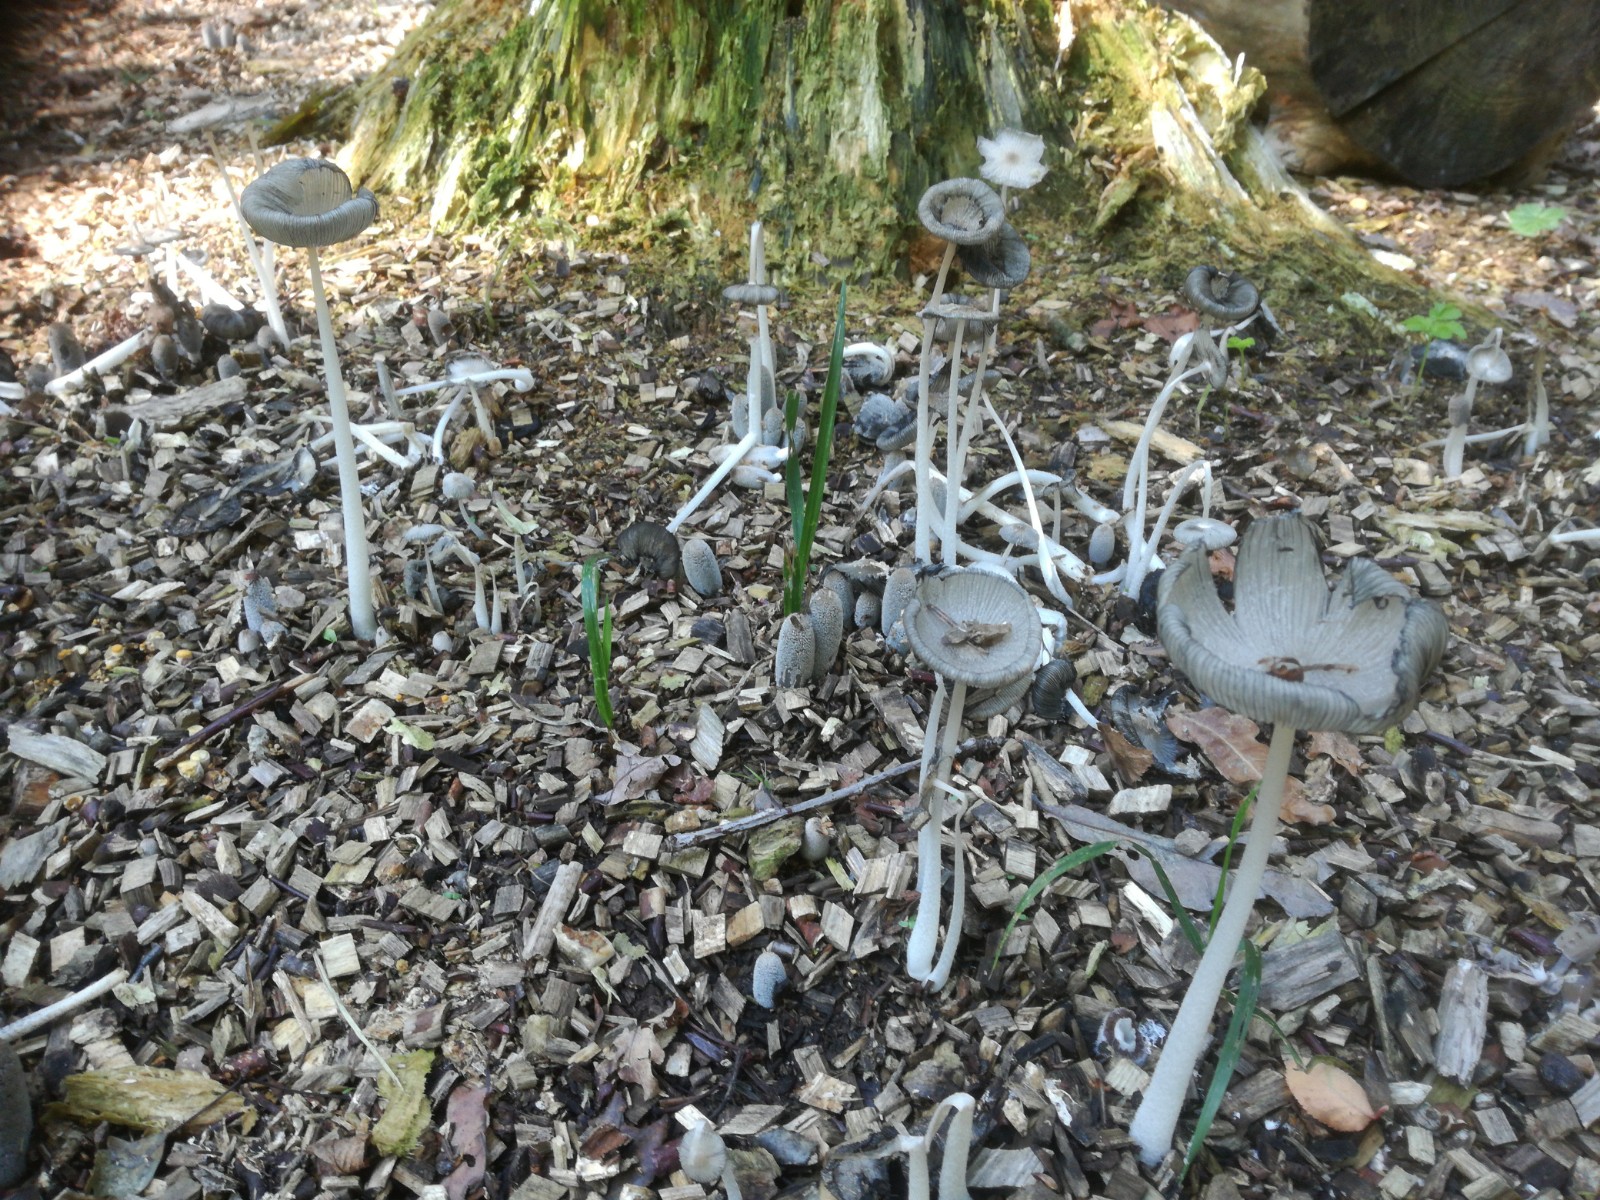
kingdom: Fungi
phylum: Basidiomycota
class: Agaricomycetes
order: Agaricales
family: Psathyrellaceae
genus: Coprinopsis
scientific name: Coprinopsis lagopus
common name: dunstokket blækhat
